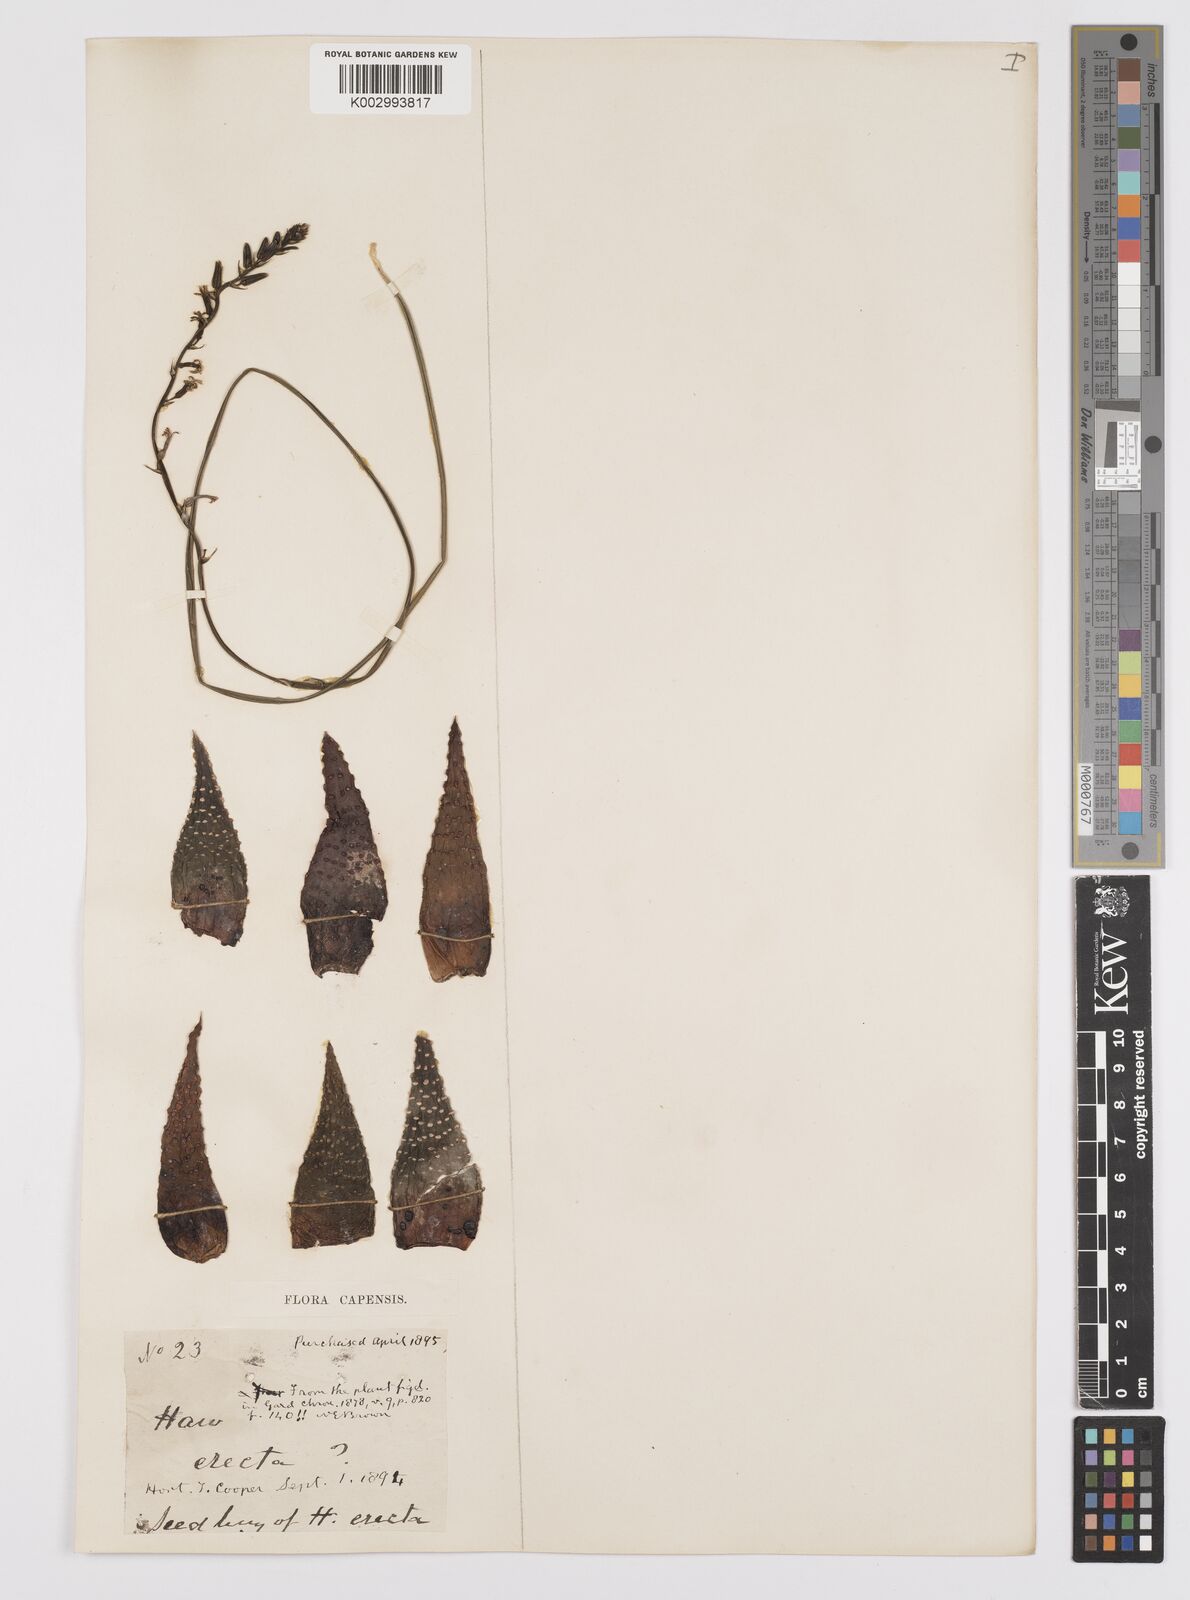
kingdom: Plantae
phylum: Tracheophyta
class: Liliopsida
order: Asparagales
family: Asphodelaceae
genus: Tulista
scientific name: Tulista pumila
